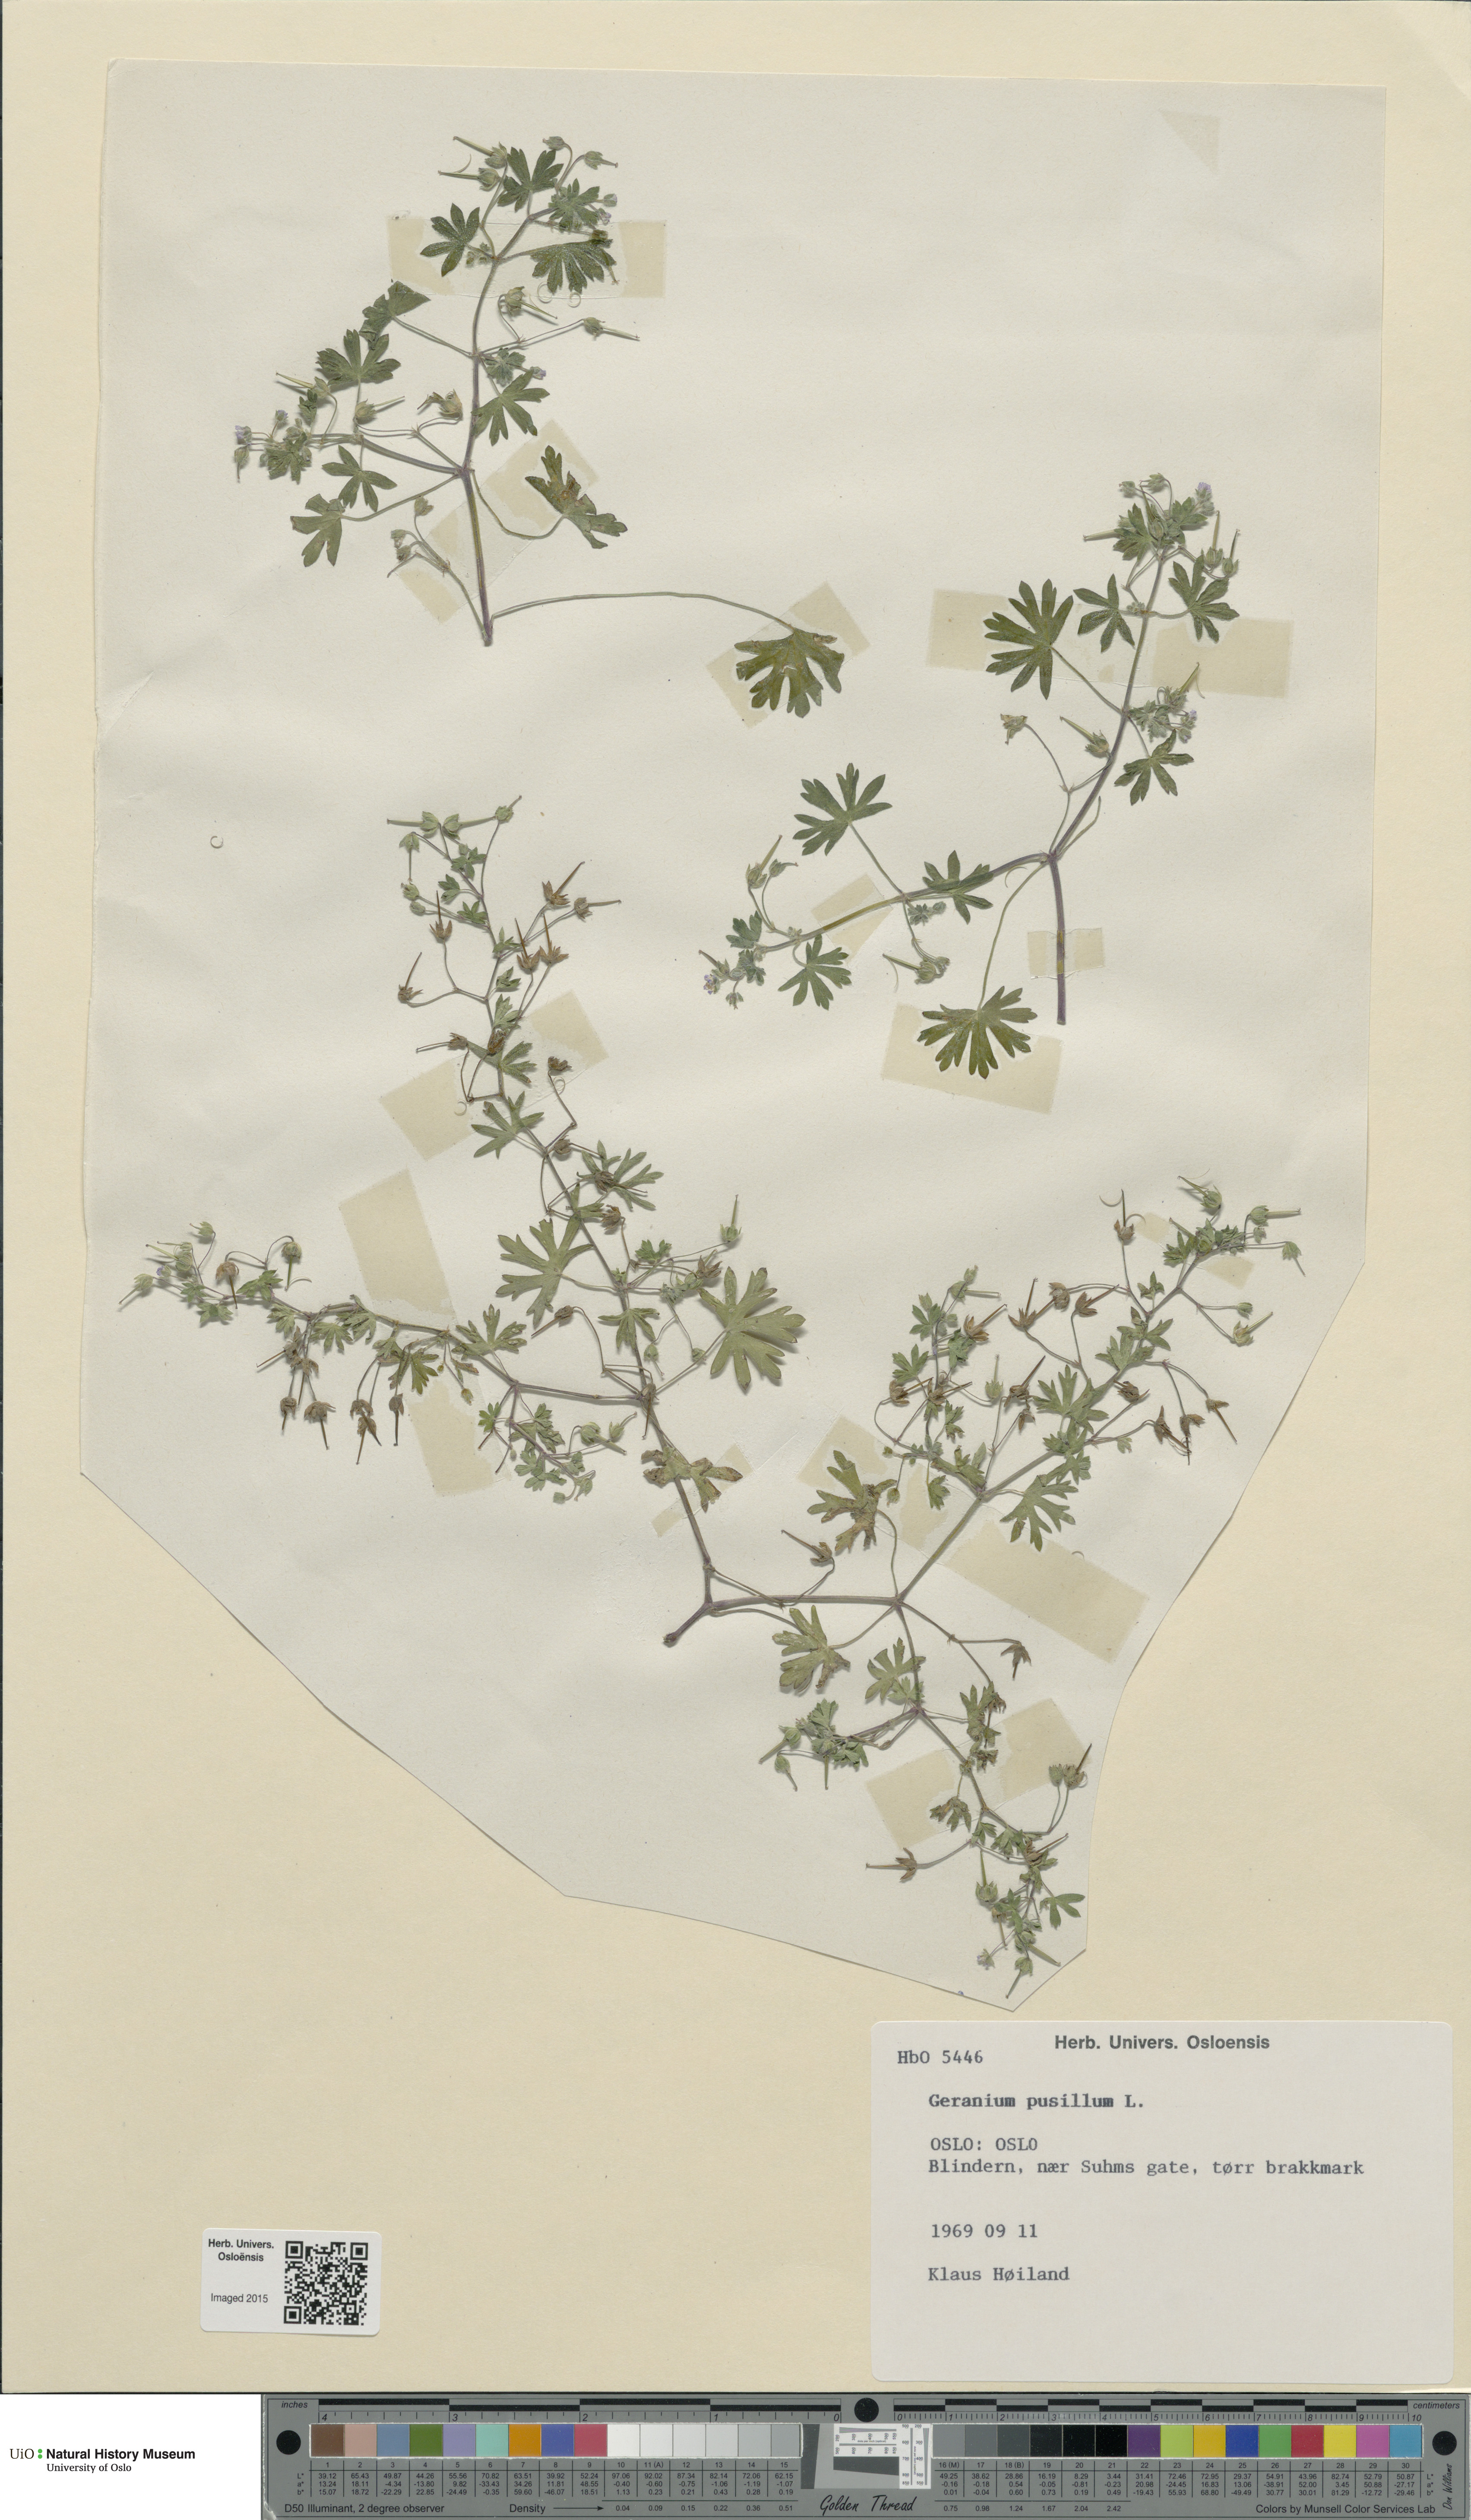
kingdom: Plantae
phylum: Tracheophyta
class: Magnoliopsida
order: Geraniales
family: Geraniaceae
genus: Geranium
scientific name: Geranium pusillum
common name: Small geranium
